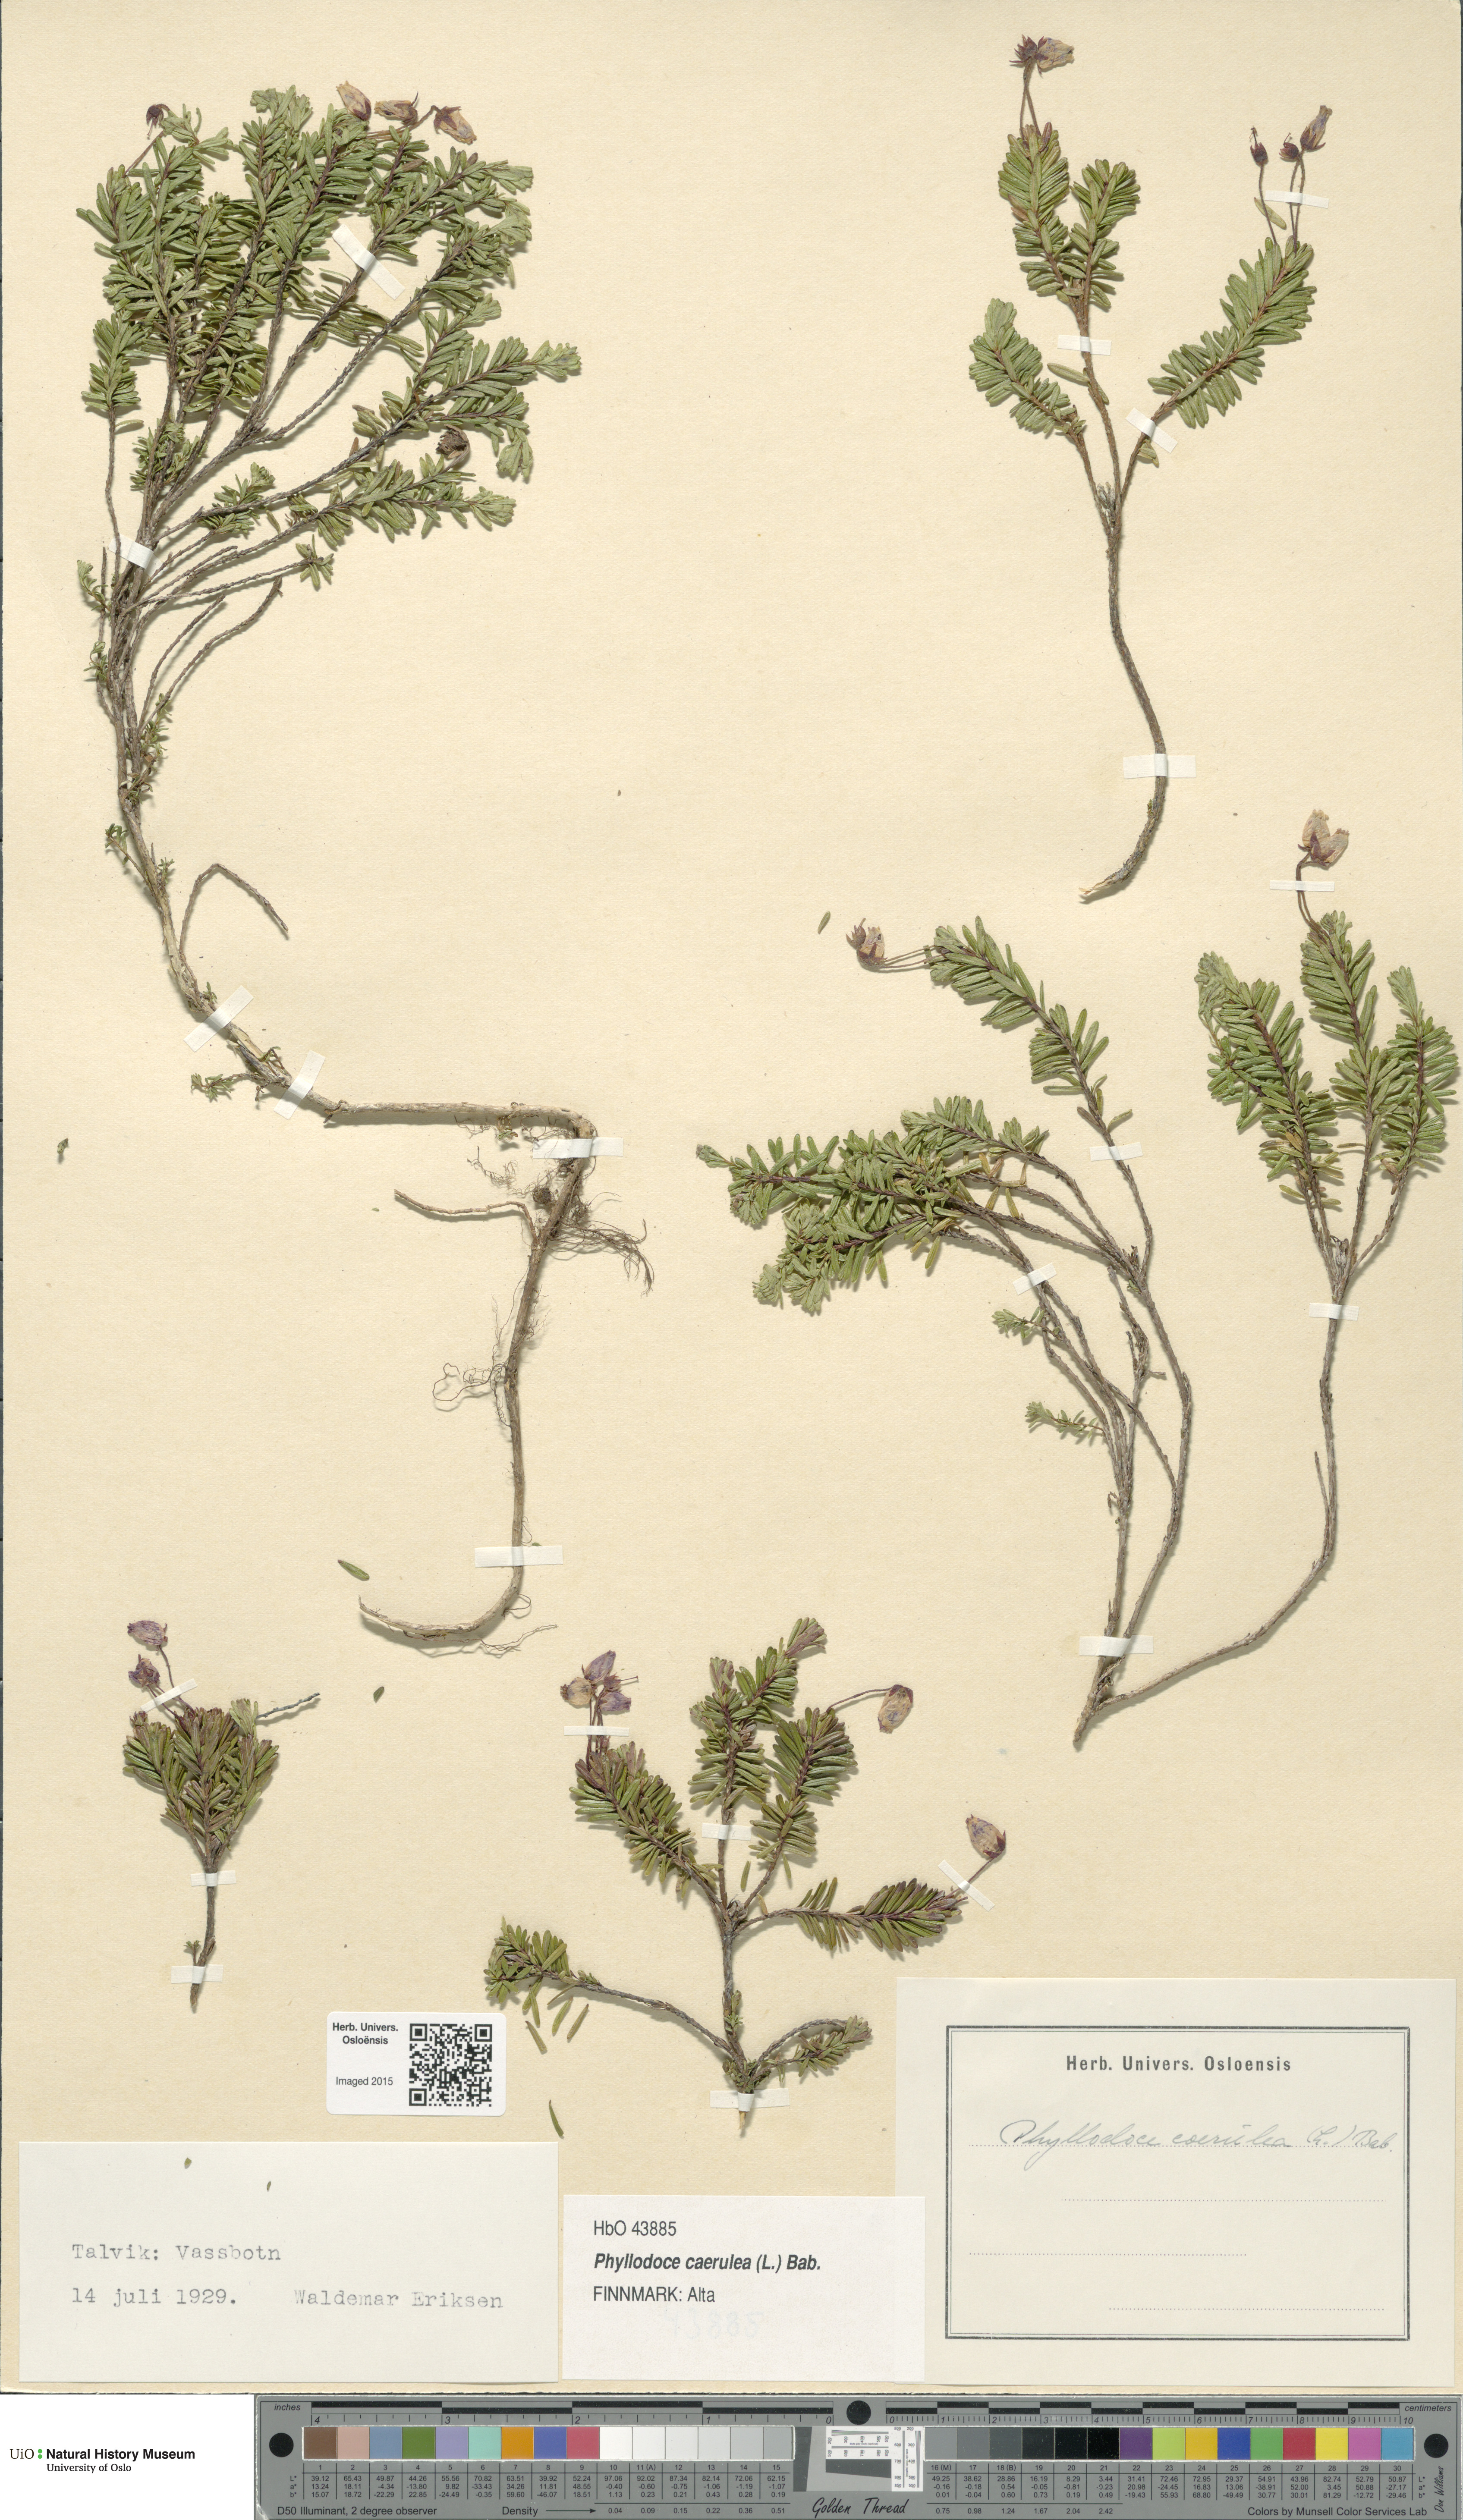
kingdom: Plantae
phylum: Tracheophyta
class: Magnoliopsida
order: Ericales
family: Ericaceae
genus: Phyllodoce
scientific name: Phyllodoce caerulea
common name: Blue heath
